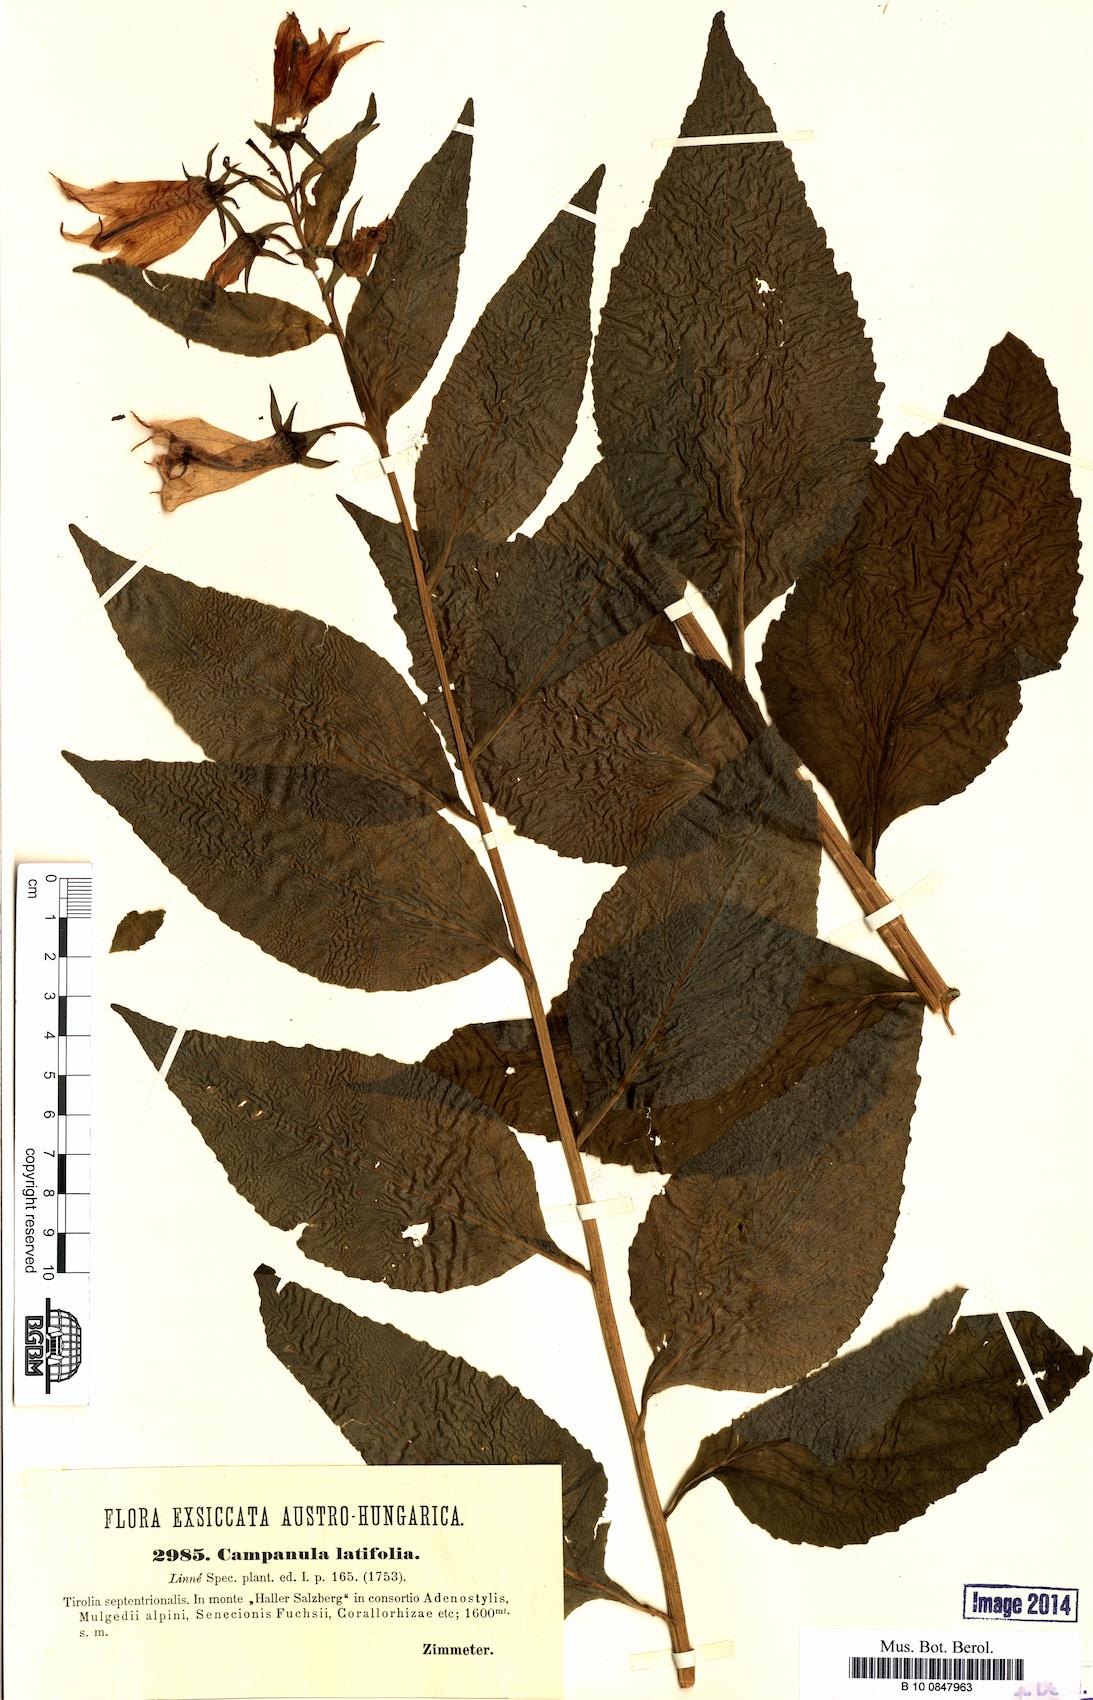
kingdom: Plantae
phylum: Tracheophyta
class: Magnoliopsida
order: Asterales
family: Campanulaceae
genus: Campanula
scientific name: Campanula latifolia
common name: Giant bellflower
